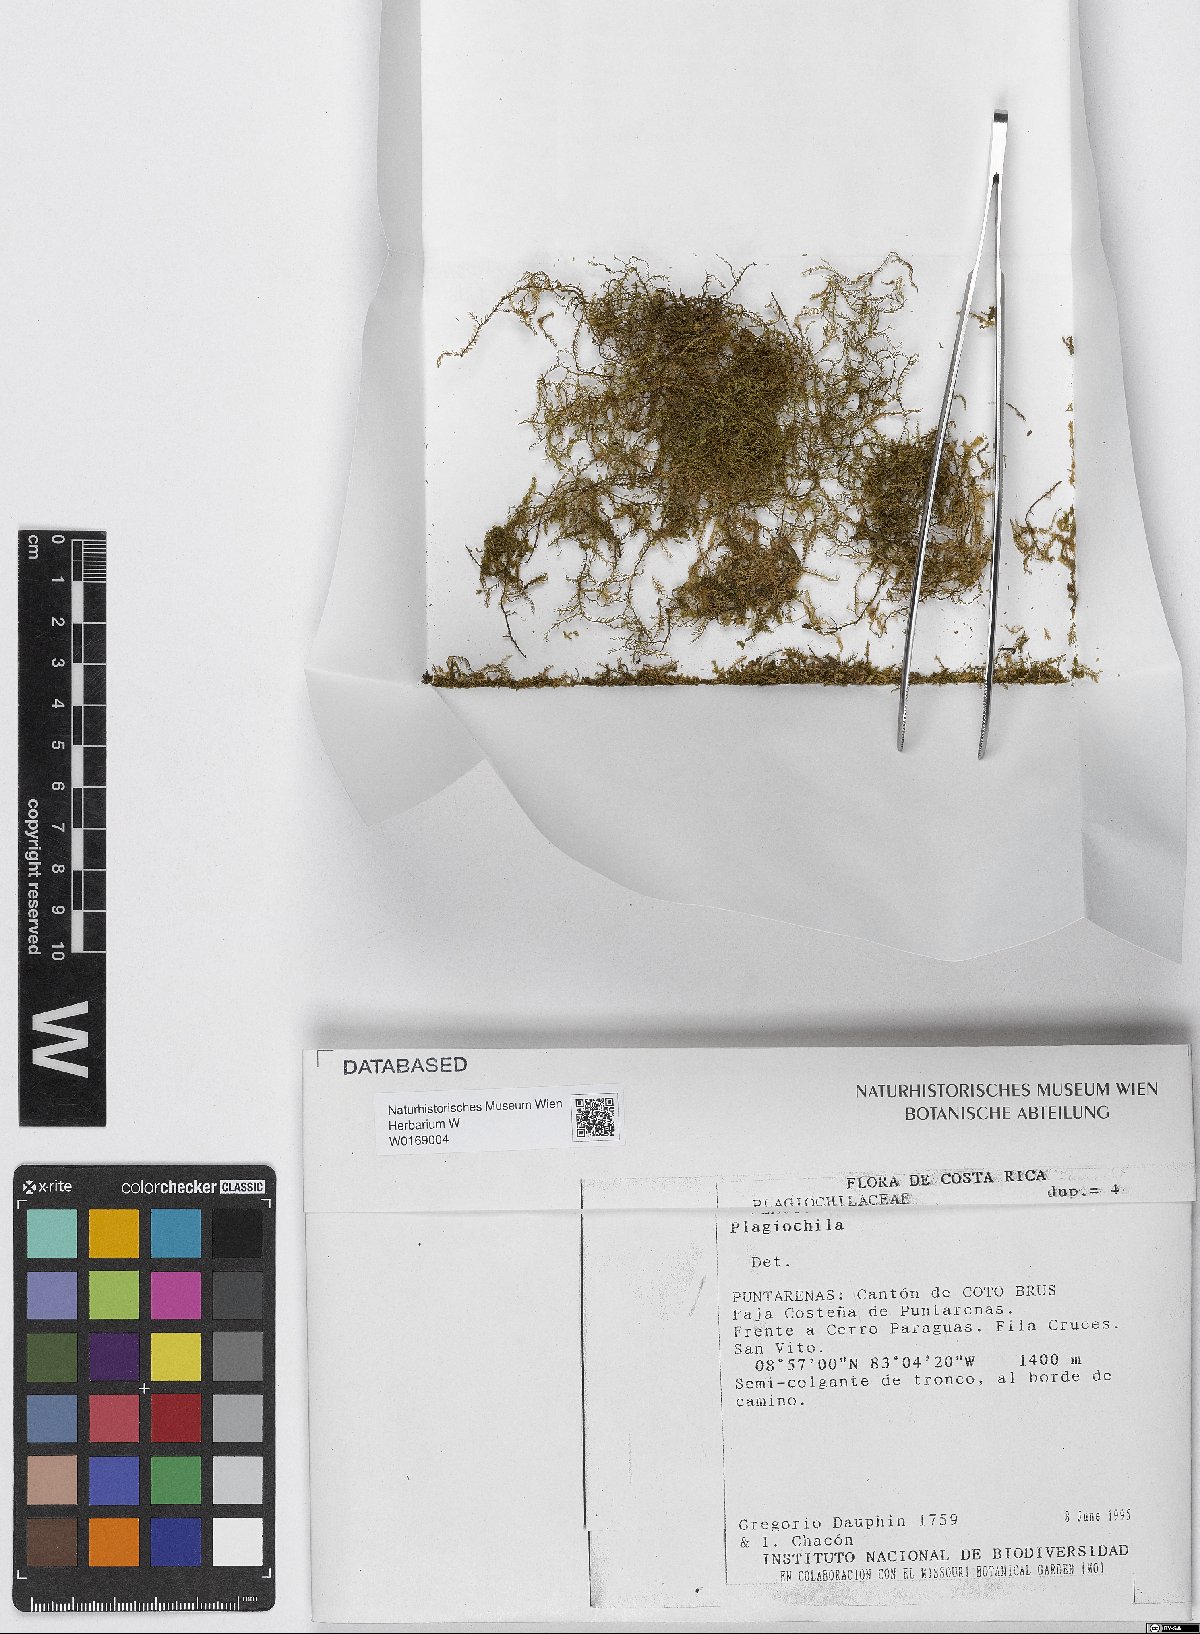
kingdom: Plantae
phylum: Marchantiophyta
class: Jungermanniopsida
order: Jungermanniales
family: Plagiochilaceae
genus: Plagiochila
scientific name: Plagiochila
